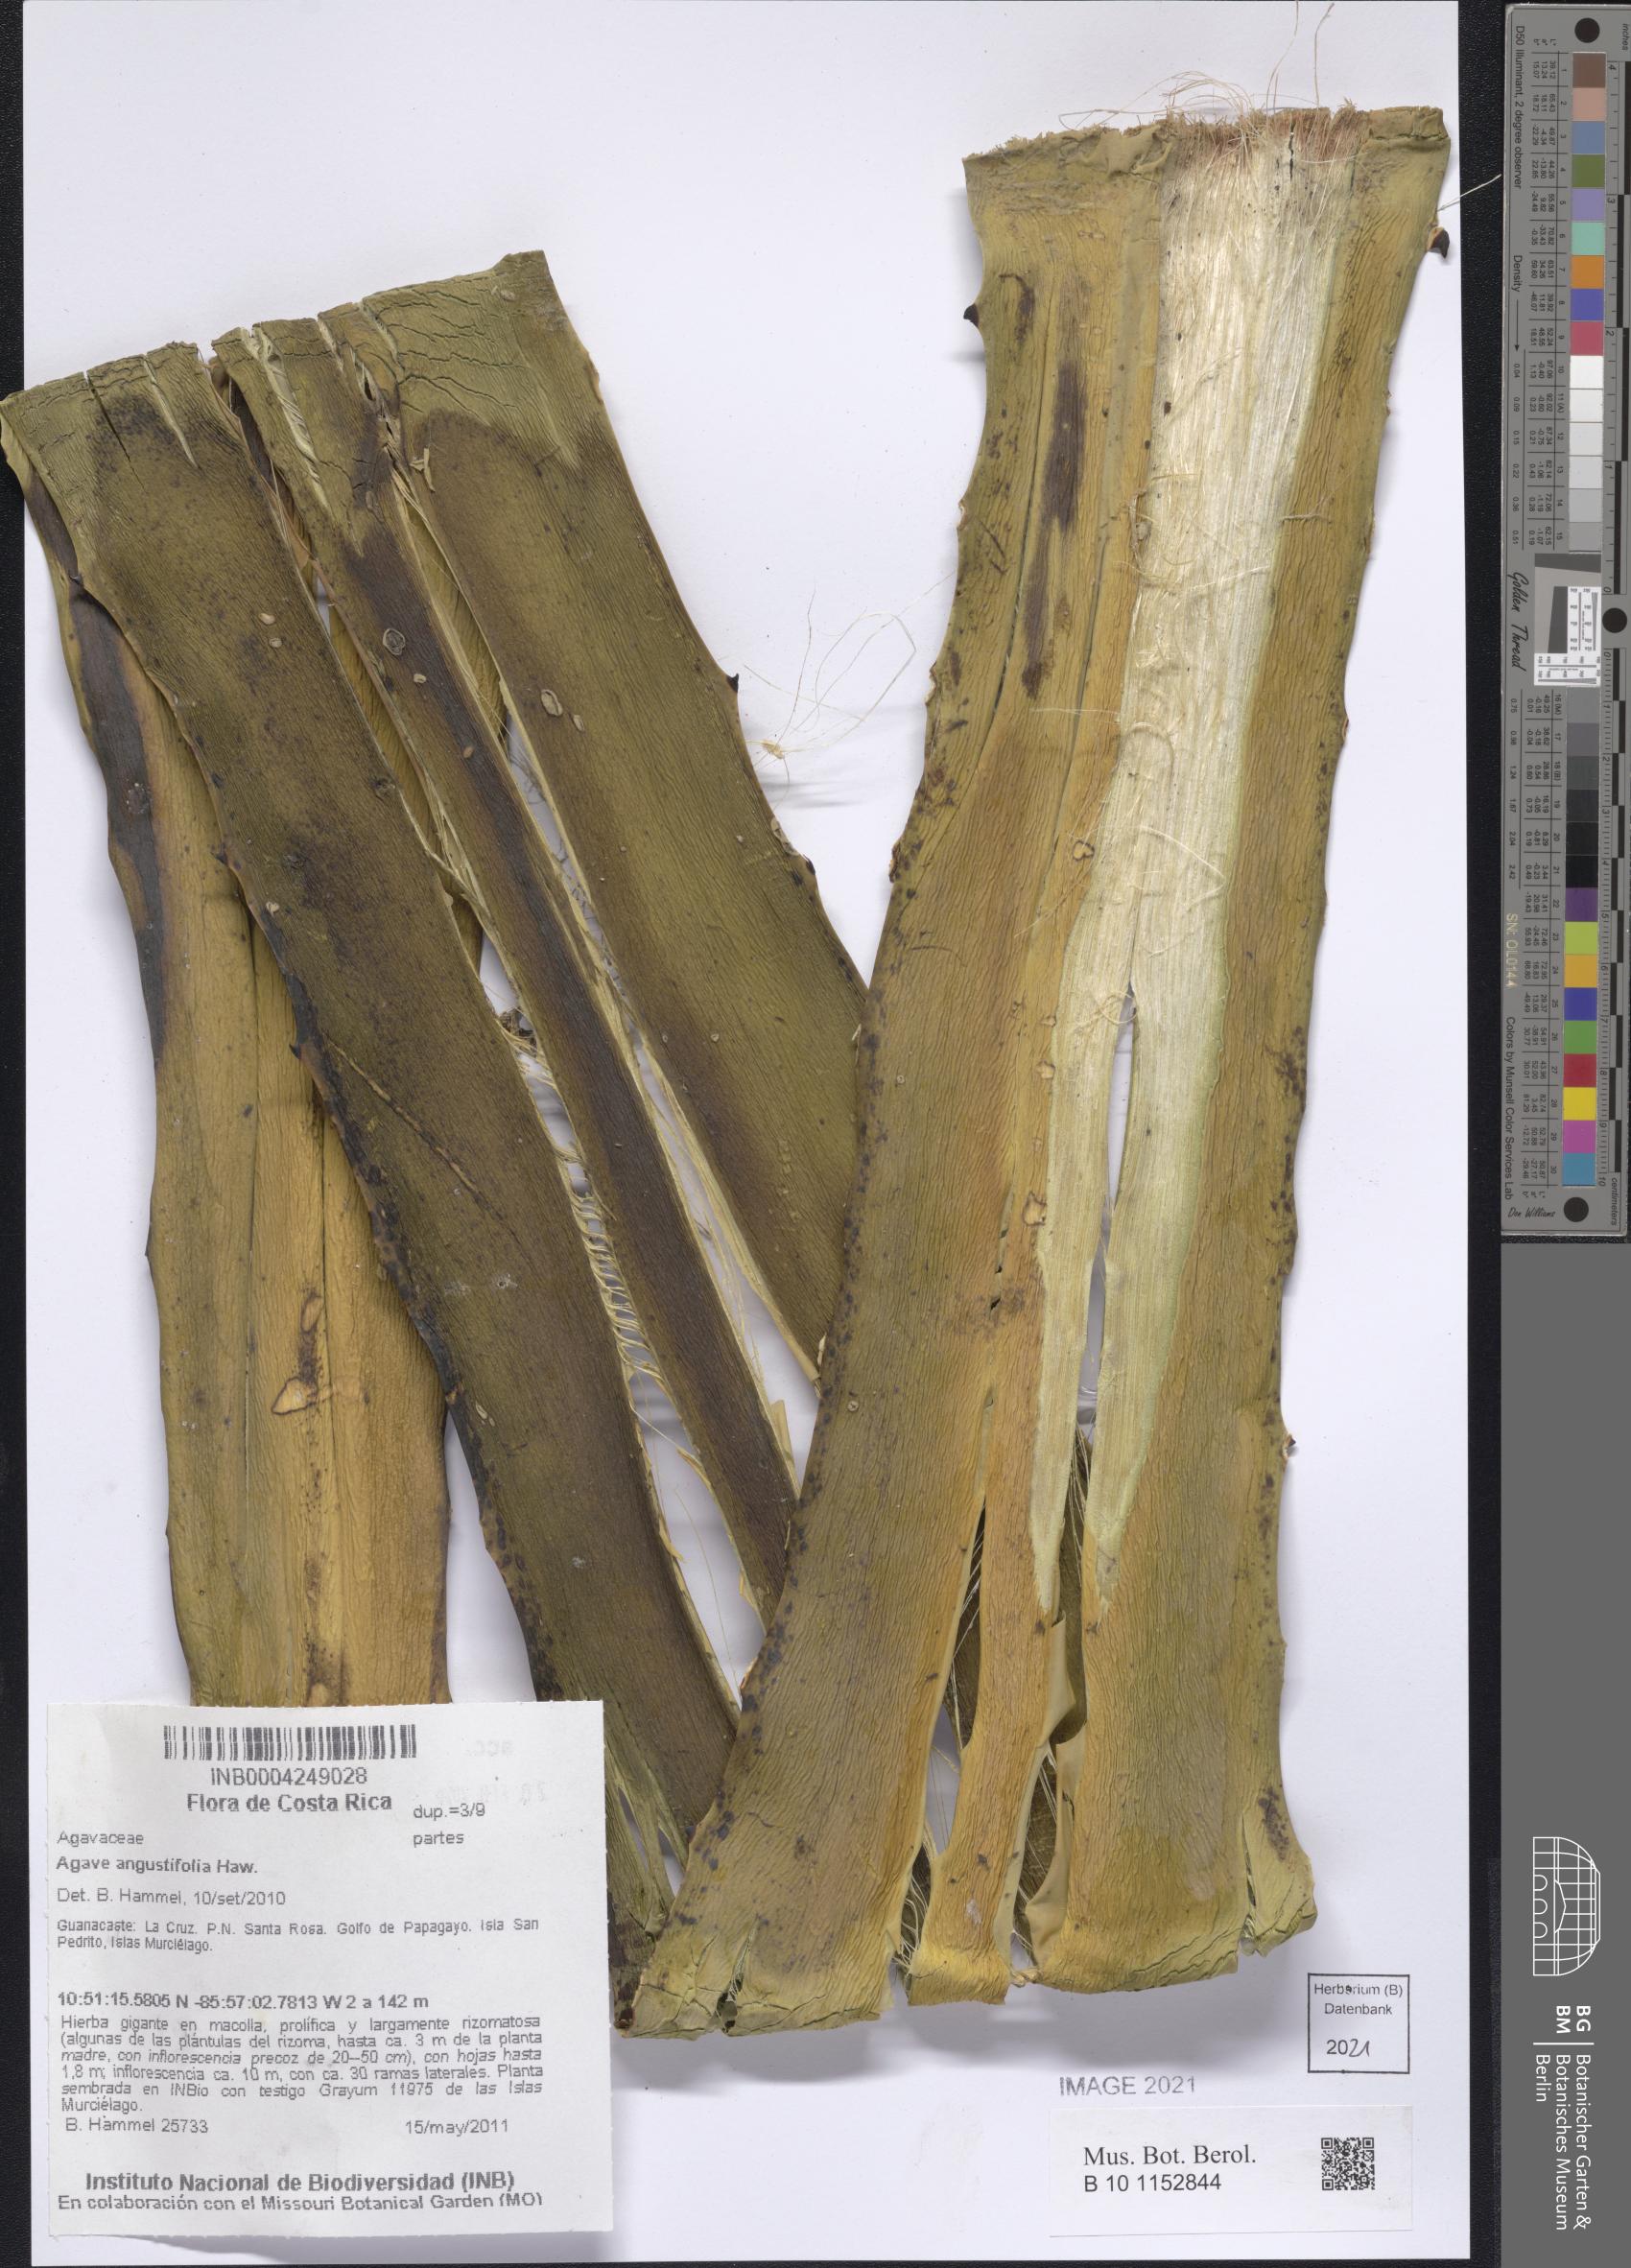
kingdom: Plantae
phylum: Tracheophyta
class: Liliopsida
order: Asparagales
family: Asparagaceae
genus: Agave
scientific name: Agave angustifolia
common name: Mescal agave
